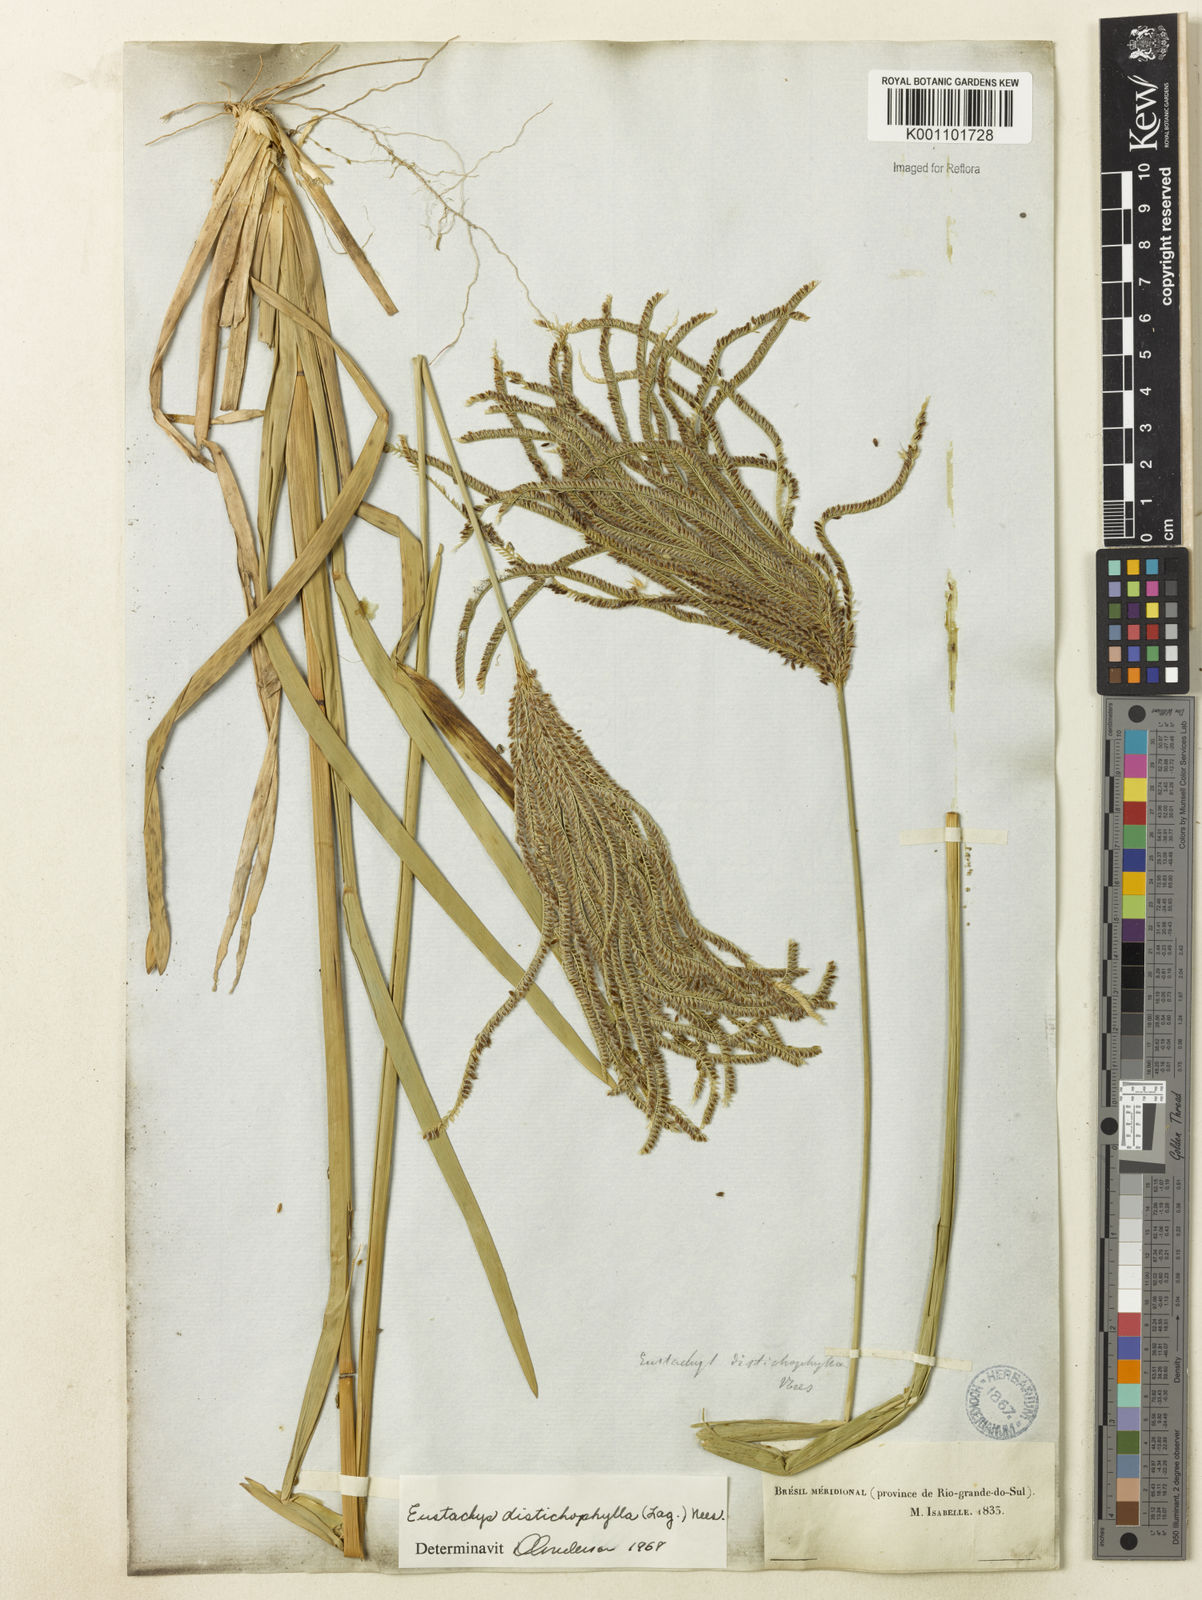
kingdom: Plantae
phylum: Tracheophyta
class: Liliopsida
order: Poales
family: Poaceae
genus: Eustachys
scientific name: Eustachys distichophylla
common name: Weeping fingergrass
